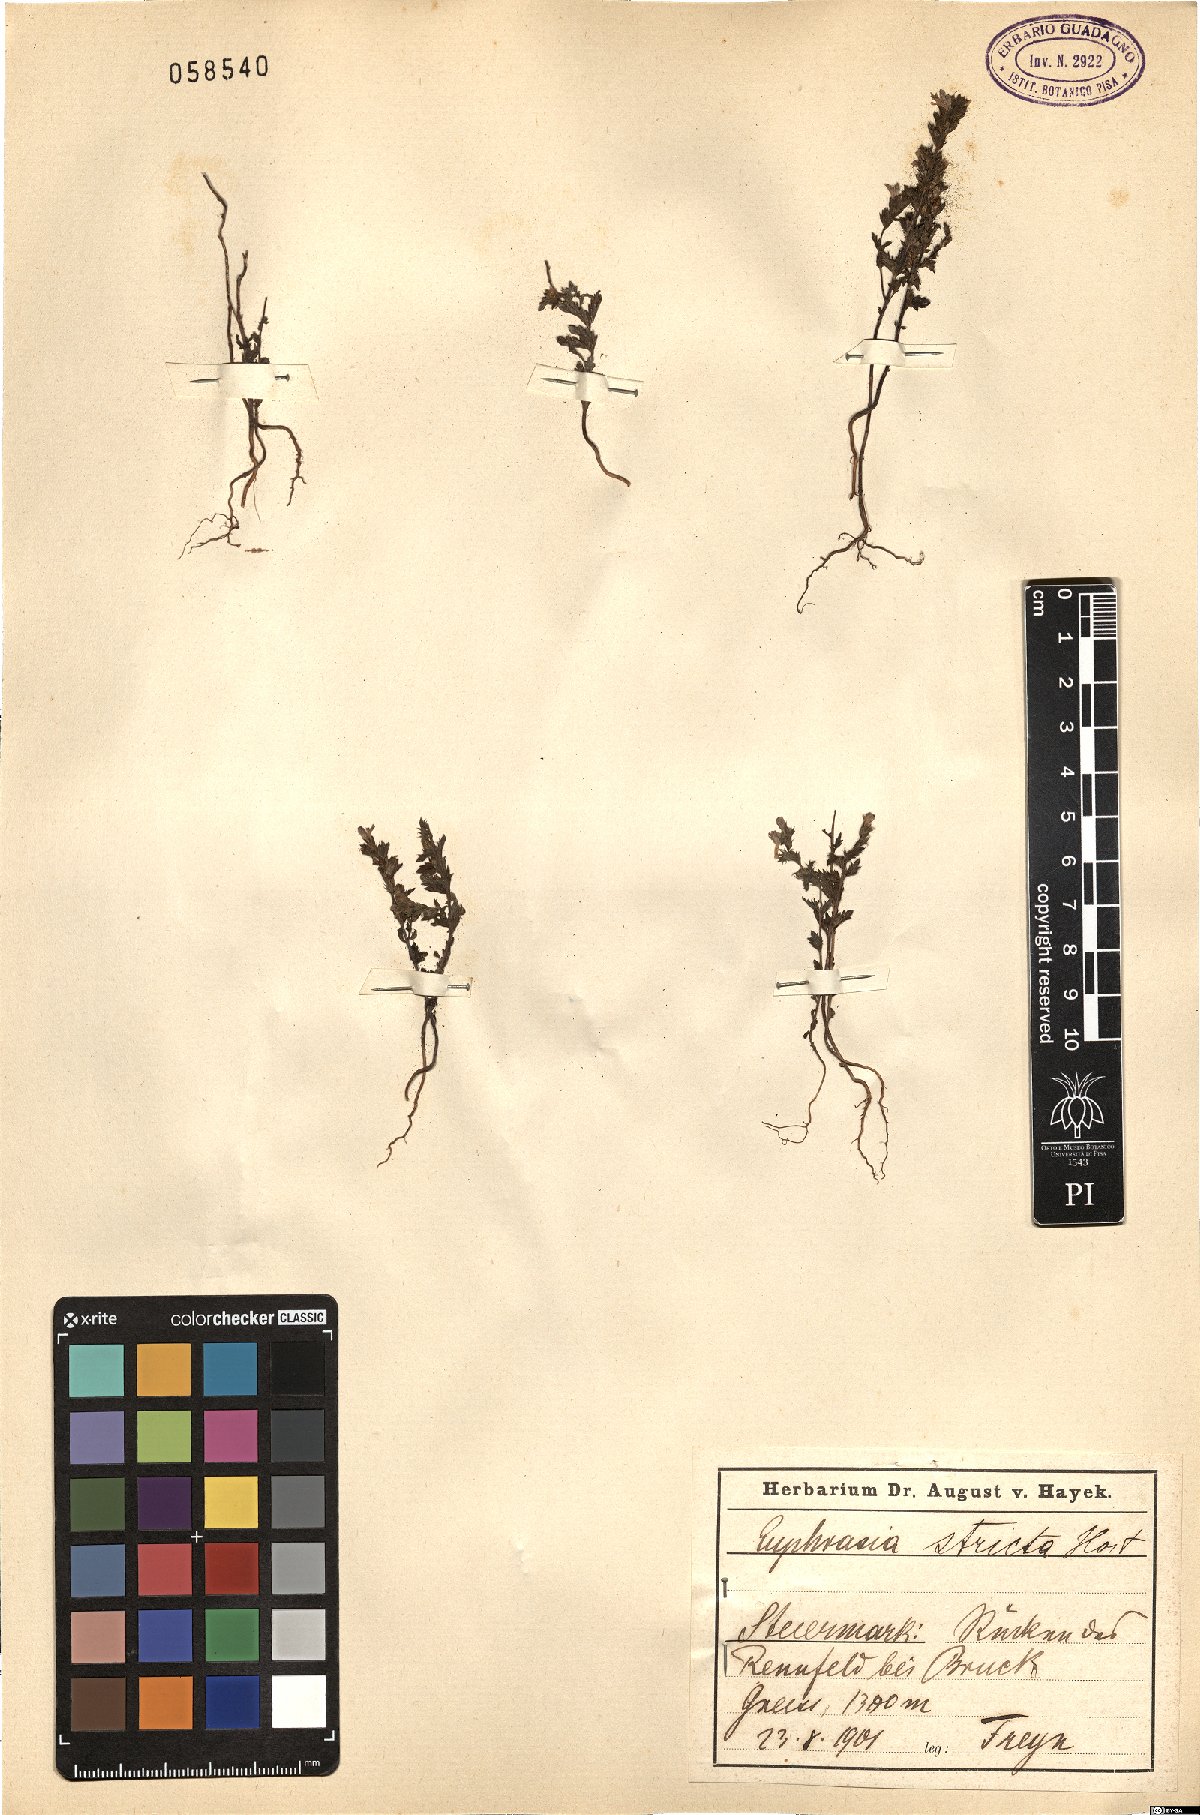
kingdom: Plantae
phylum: Tracheophyta
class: Magnoliopsida
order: Lamiales
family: Orobanchaceae
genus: Euphrasia
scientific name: Euphrasia stricta
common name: Drug eyebright
